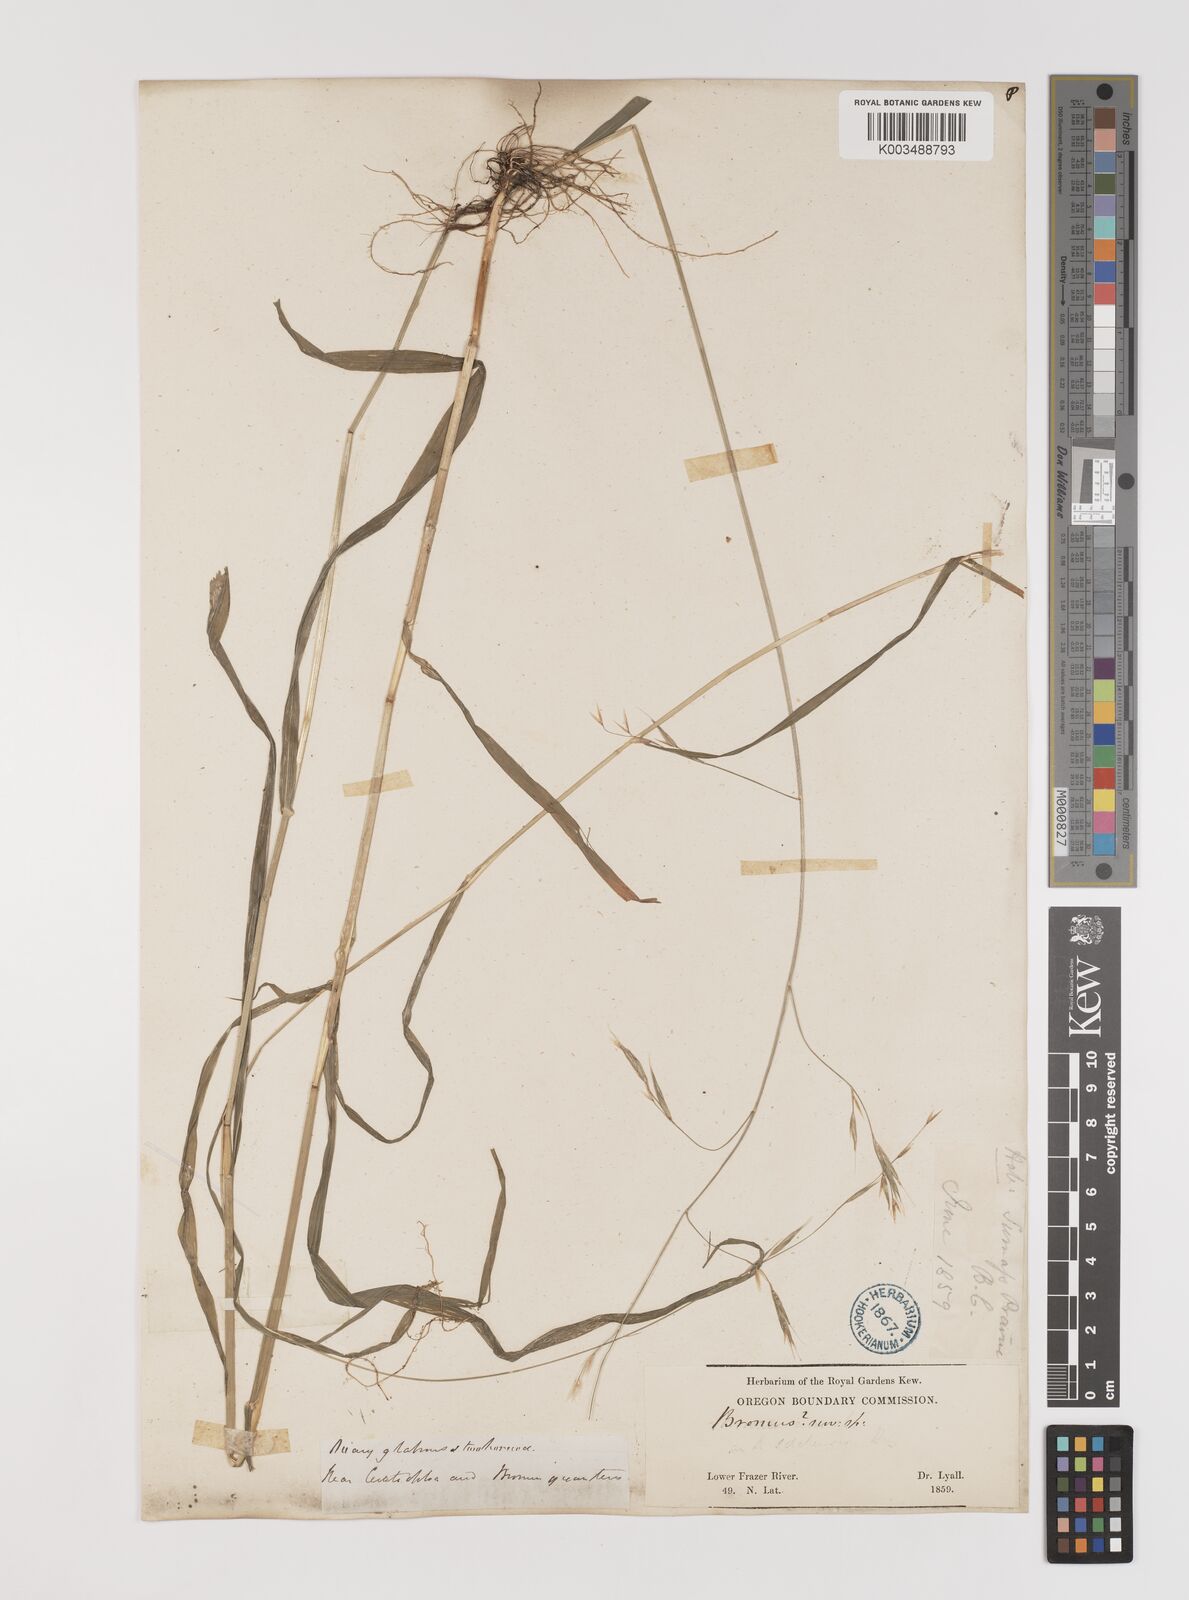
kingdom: Plantae
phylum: Tracheophyta
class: Liliopsida
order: Poales
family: Poaceae
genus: Bromus
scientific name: Bromus
